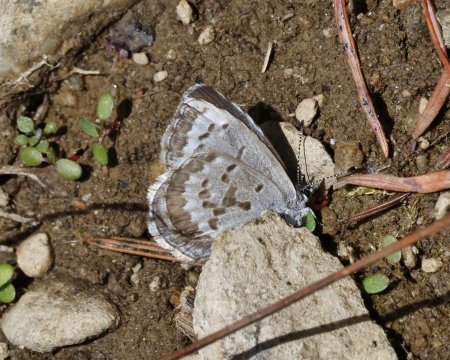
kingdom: Animalia
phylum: Arthropoda
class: Insecta
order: Lepidoptera
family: Lycaenidae
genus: Celastrina
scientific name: Celastrina asheri
